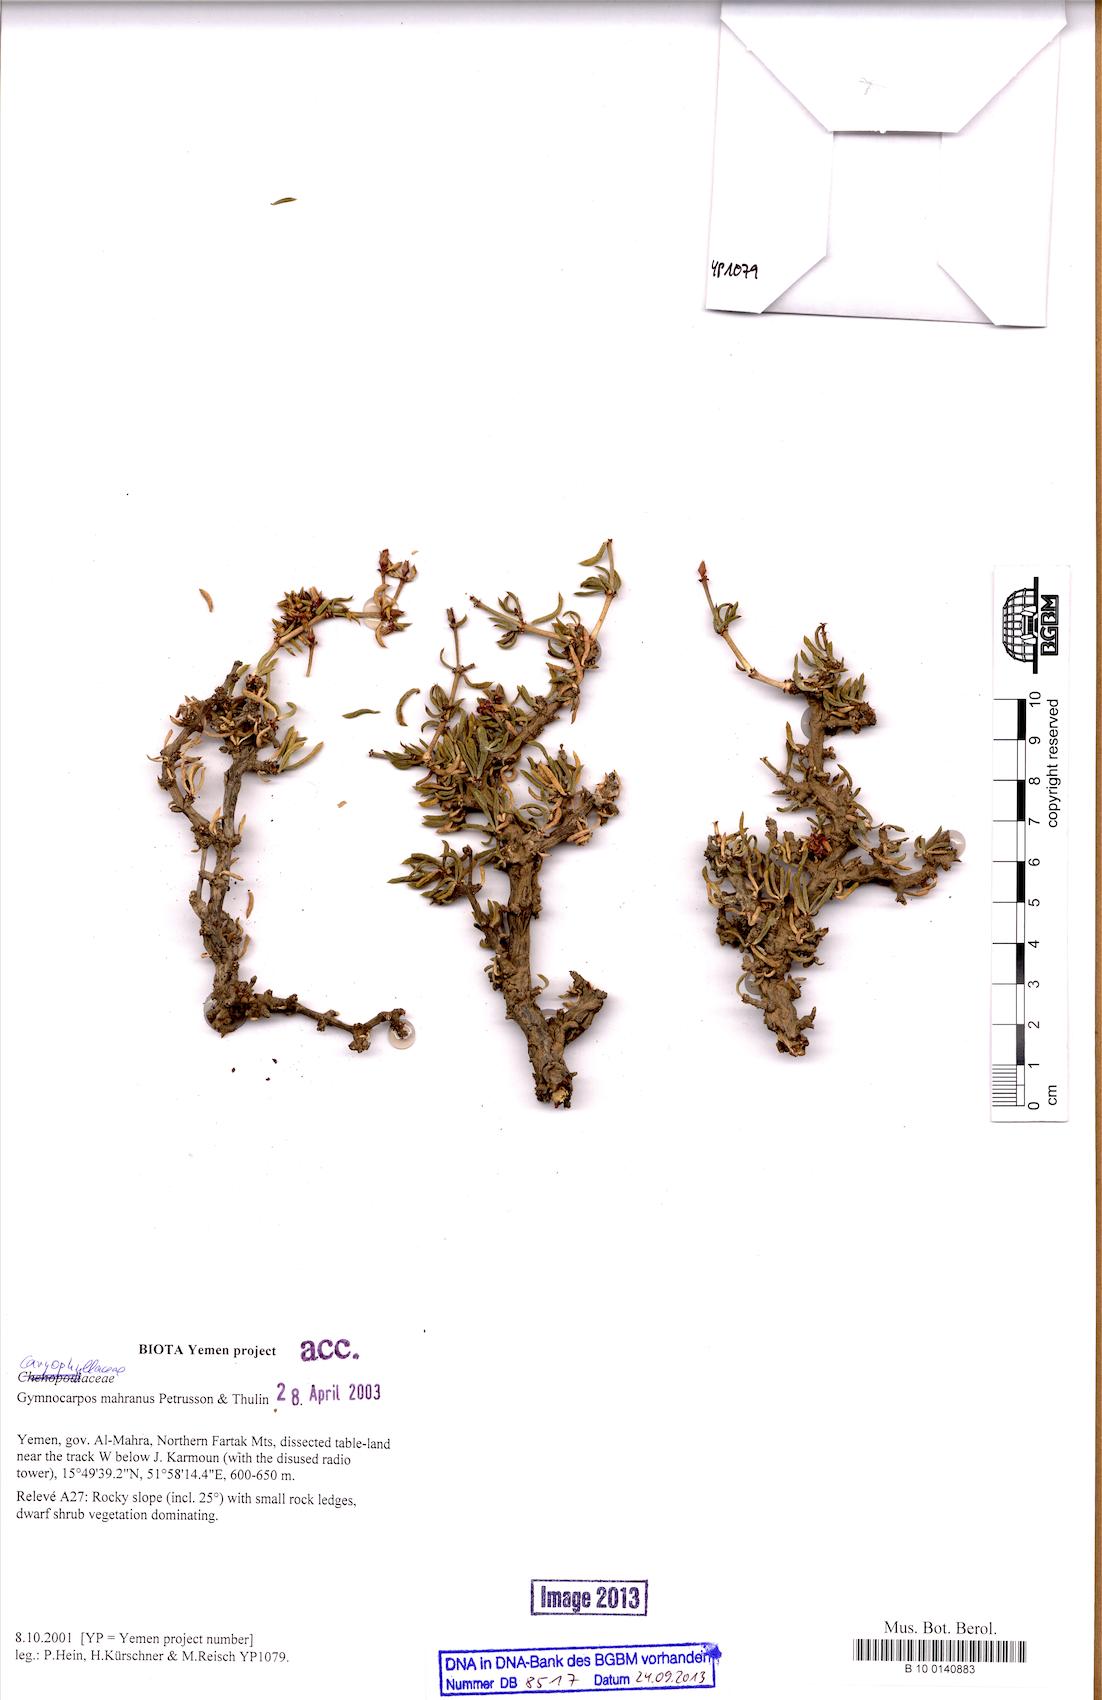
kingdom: Plantae
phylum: Tracheophyta
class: Magnoliopsida
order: Caryophyllales
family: Caryophyllaceae
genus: Gymnocarpos
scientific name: Gymnocarpos mahranus
